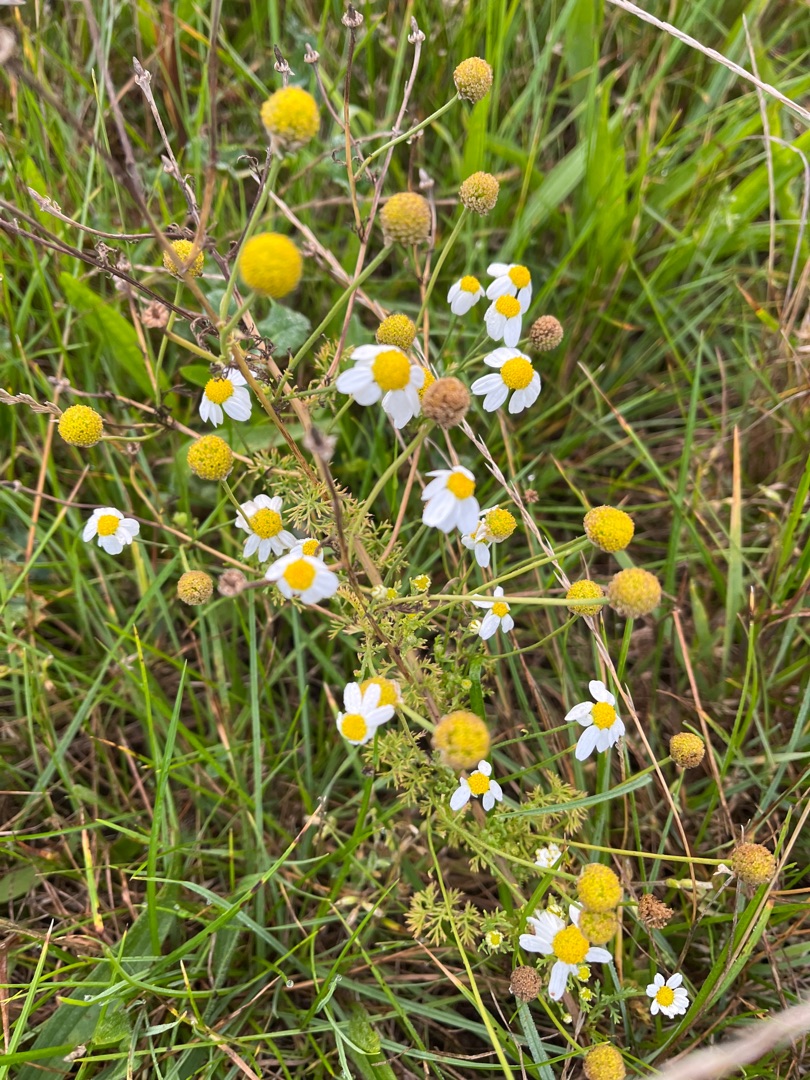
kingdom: Plantae
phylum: Tracheophyta
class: Magnoliopsida
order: Asterales
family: Asteraceae
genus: Anthemis
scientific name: Anthemis cotula
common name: Stinkende gåseurt
